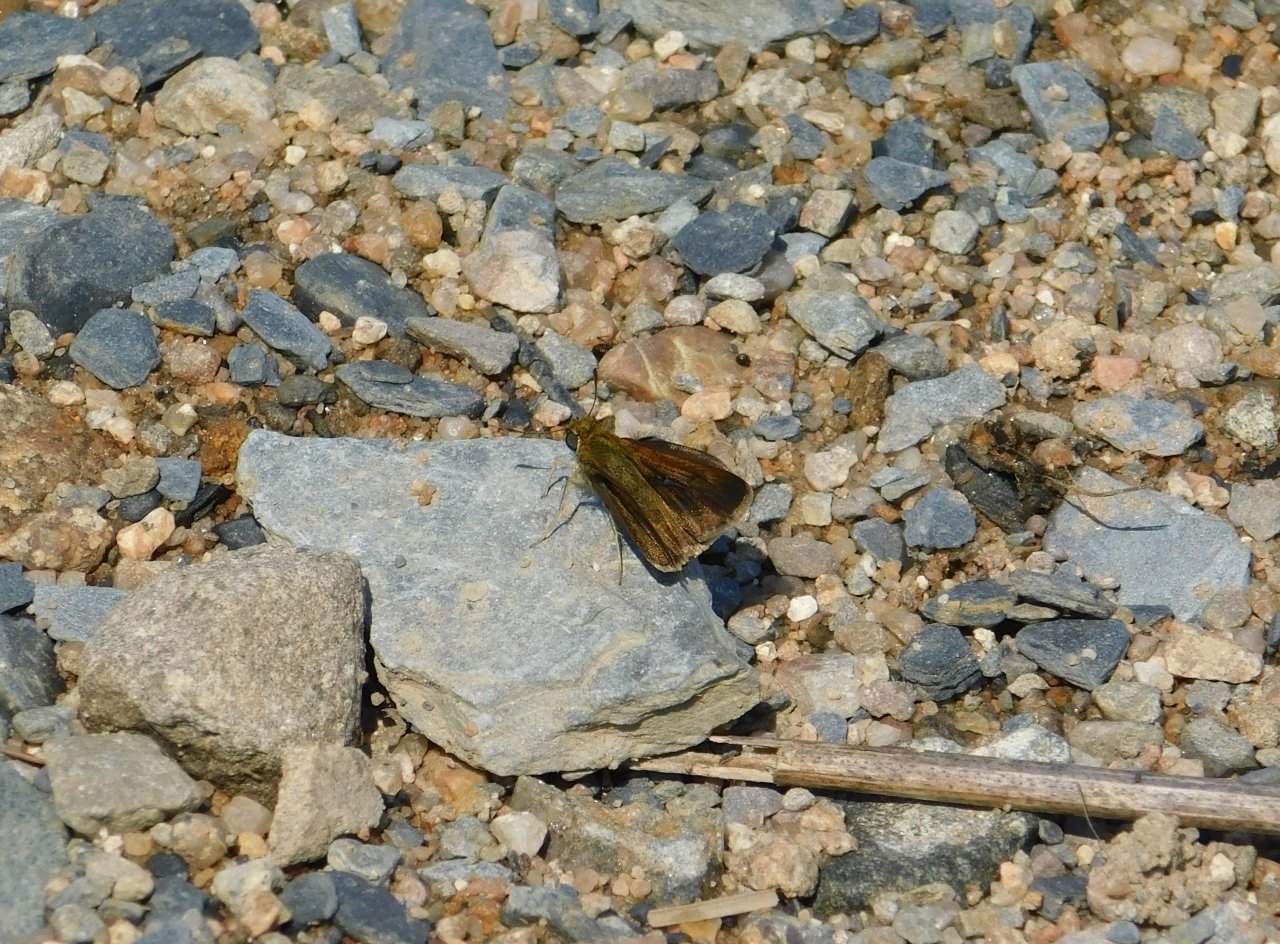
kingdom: Animalia
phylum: Arthropoda
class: Insecta
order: Lepidoptera
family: Hesperiidae
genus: Euphyes
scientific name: Euphyes vestris
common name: Dun Skipper
